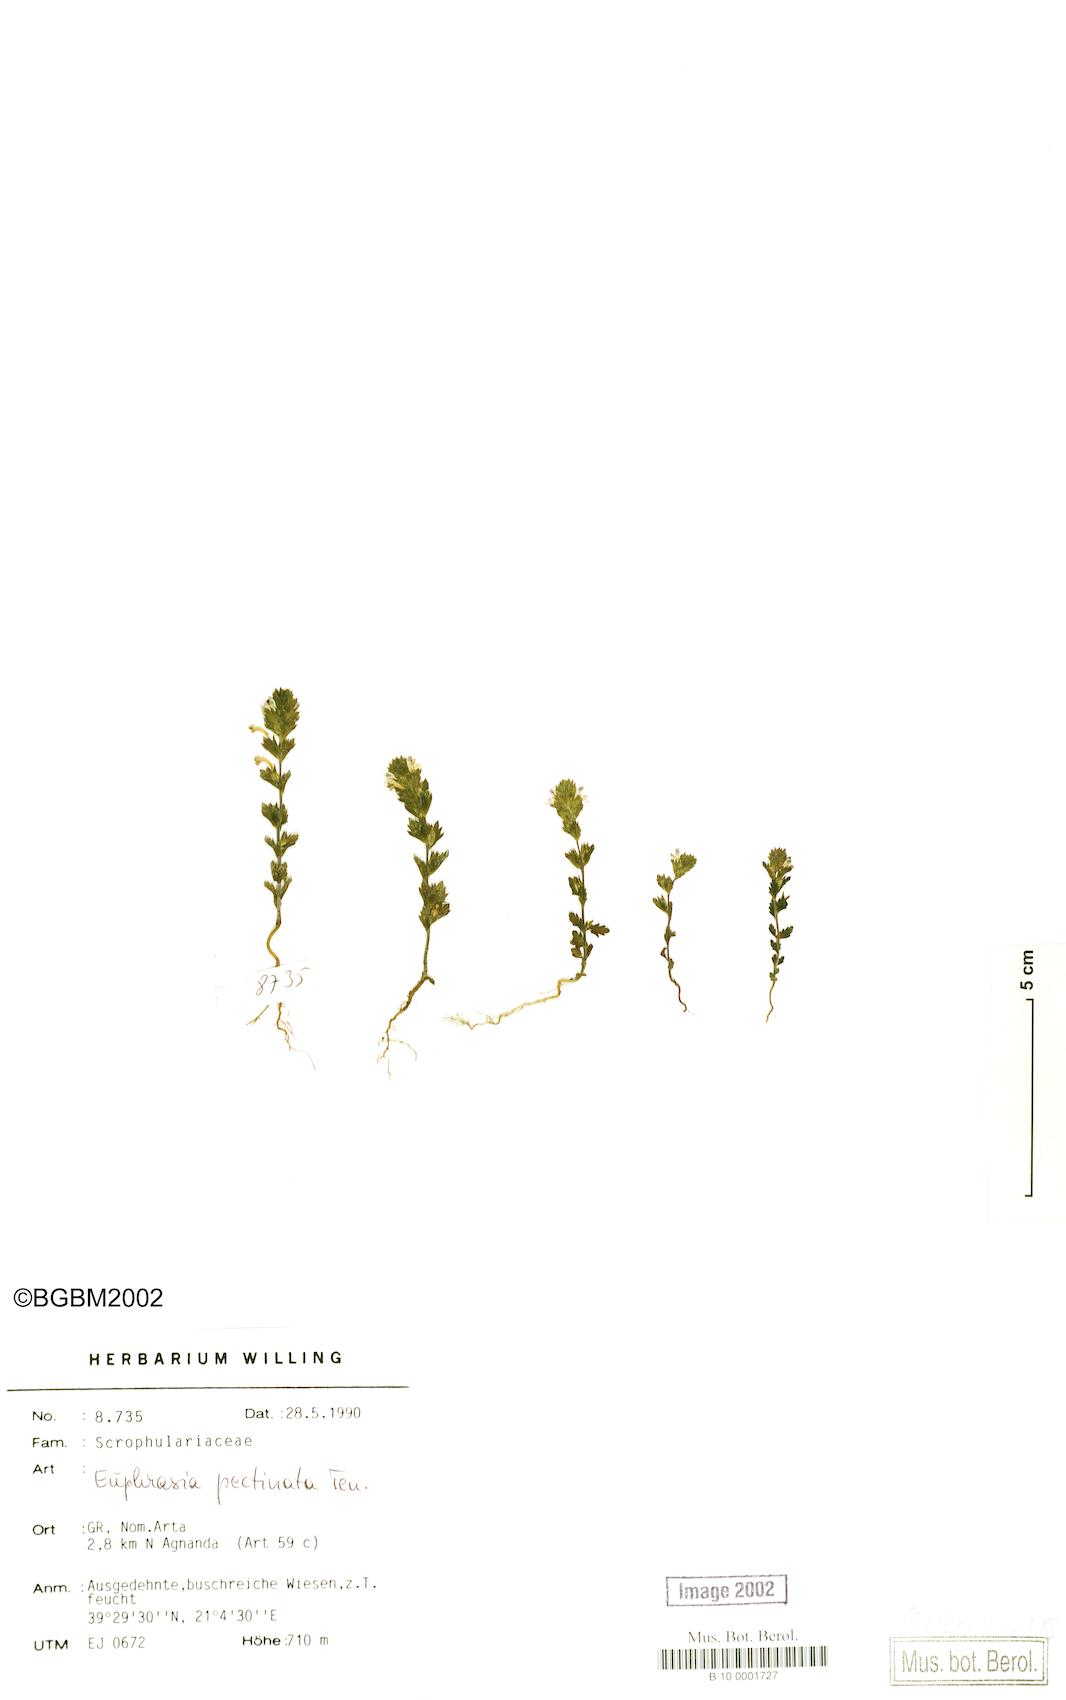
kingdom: Plantae
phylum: Tracheophyta
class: Magnoliopsida
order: Lamiales
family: Orobanchaceae
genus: Euphrasia
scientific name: Euphrasia pectinata
